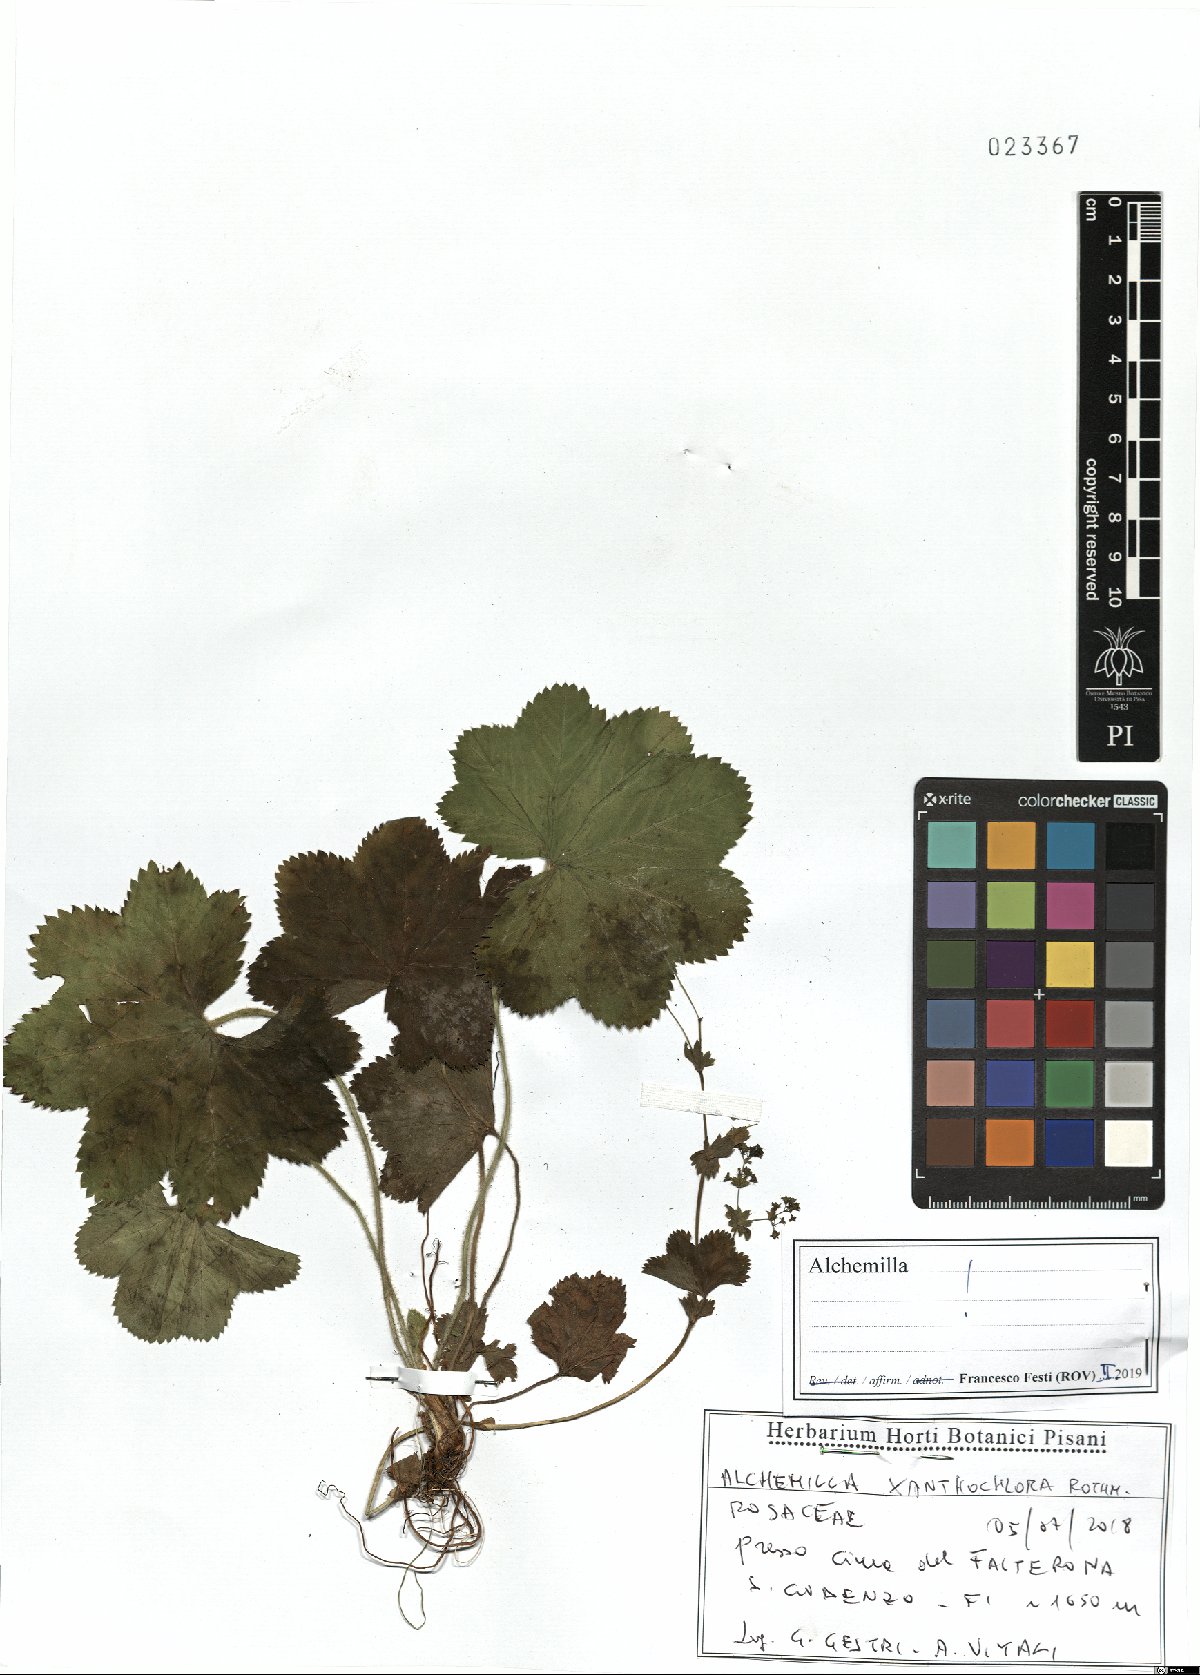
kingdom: Plantae
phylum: Tracheophyta
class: Magnoliopsida
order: Rosales
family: Rosaceae
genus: Alchemilla
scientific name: Alchemilla xanthochlora
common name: Intermediate lady's-mantle
